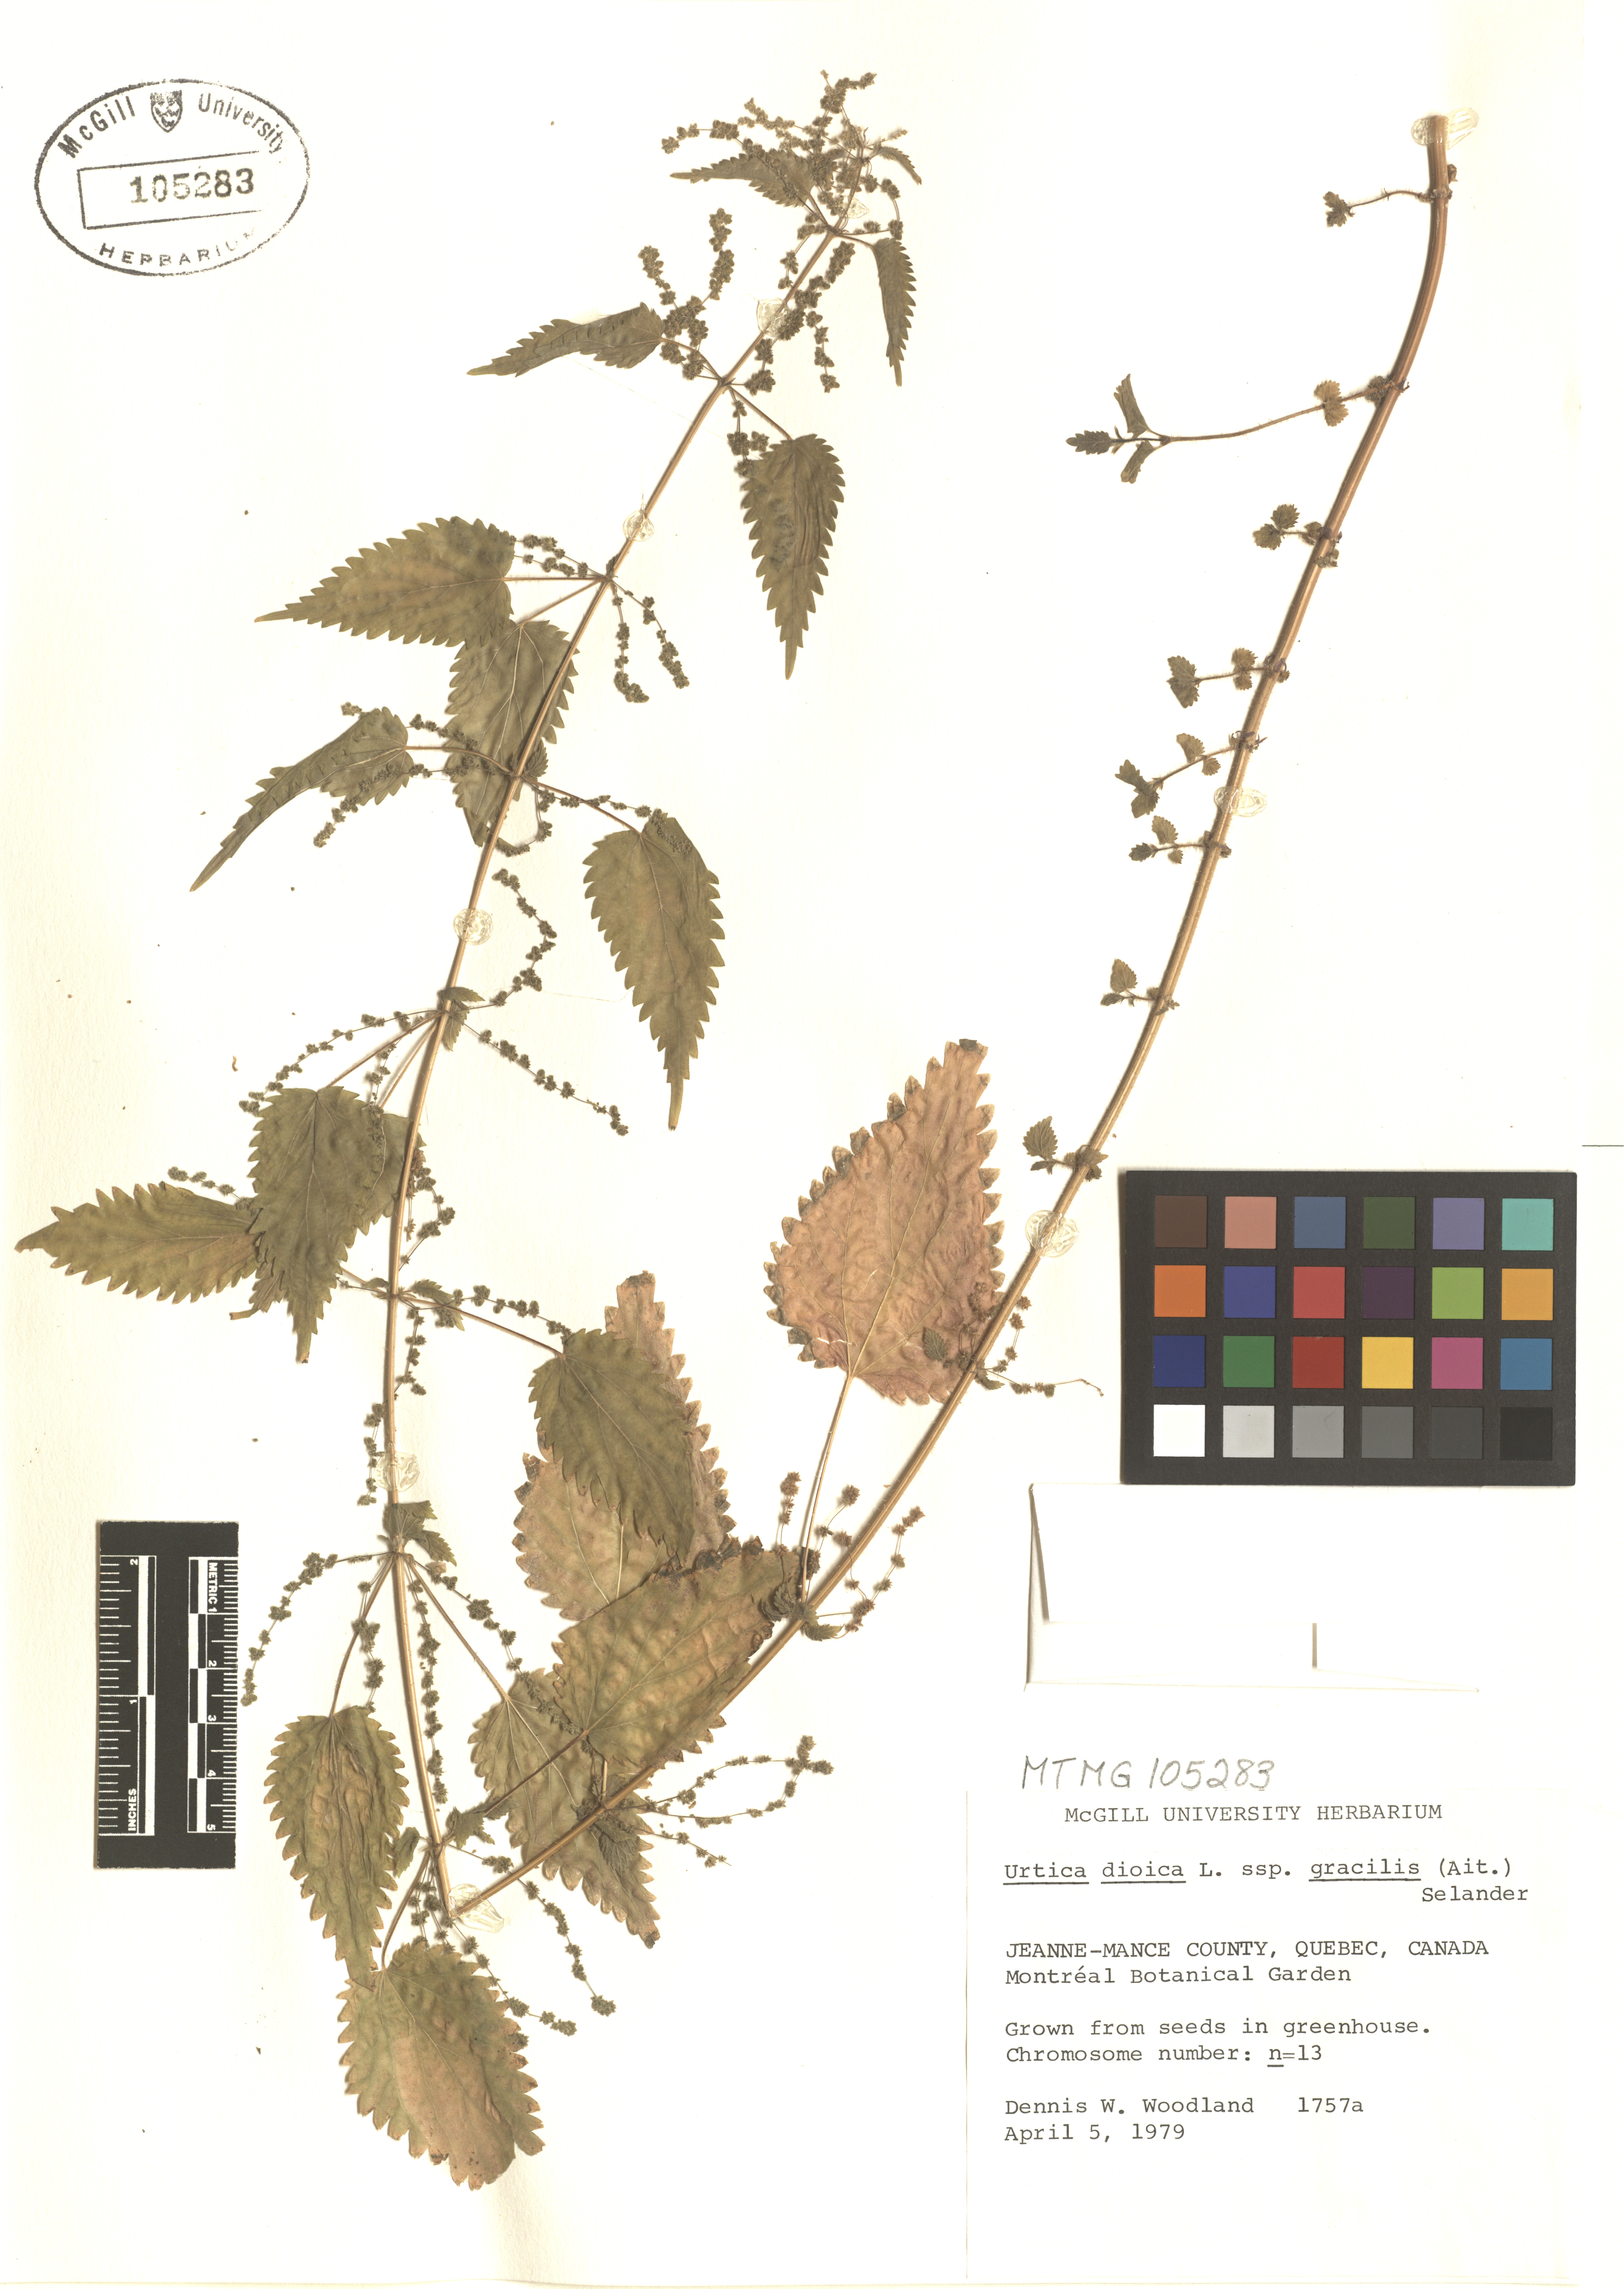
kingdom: Plantae
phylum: Tracheophyta
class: Magnoliopsida
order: Rosales
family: Urticaceae
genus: Urtica
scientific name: Urtica gracilis
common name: Slender stinging nettle
